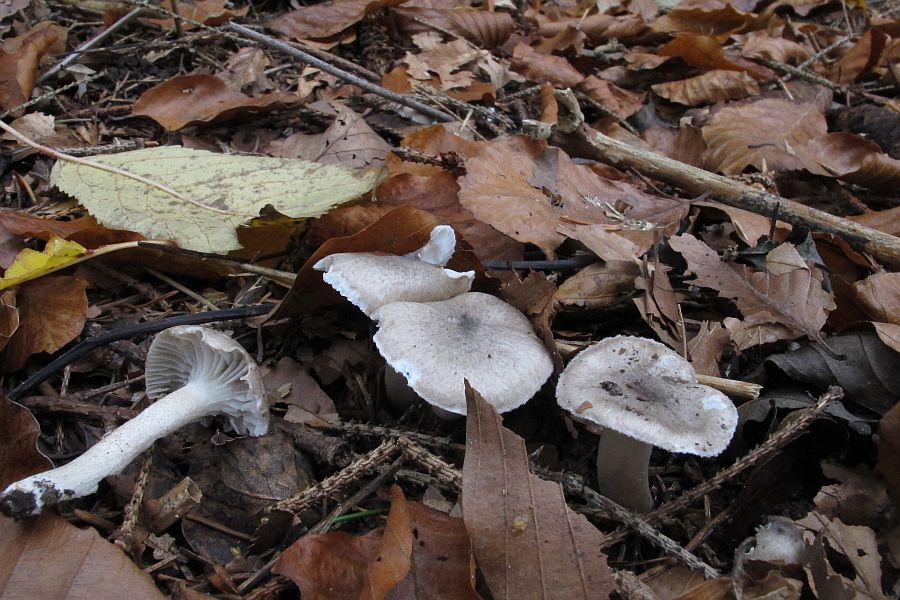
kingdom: Fungi
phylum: Basidiomycota
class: Agaricomycetes
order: Agaricales
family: Hygrophoraceae
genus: Hygrophorus
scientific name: Hygrophorus pustulatus
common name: mørkprikket sneglehat
